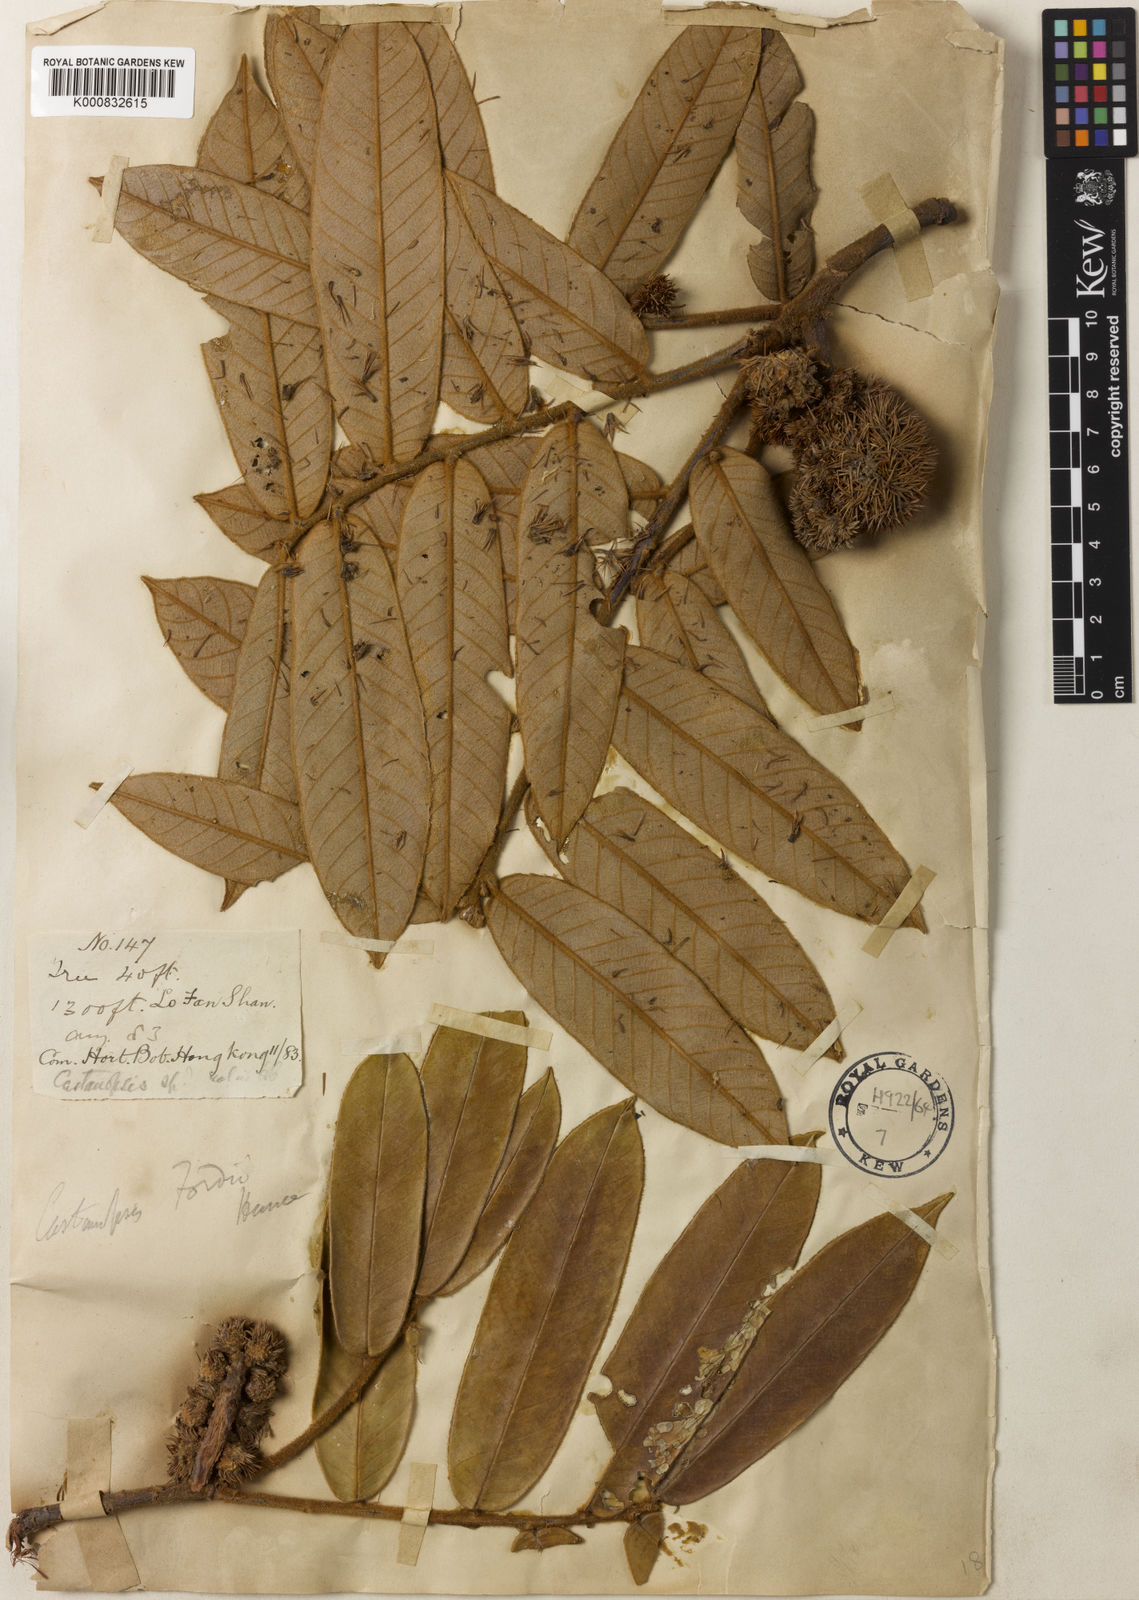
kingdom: Plantae
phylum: Tracheophyta
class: Magnoliopsida
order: Fagales
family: Fagaceae
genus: Castanopsis
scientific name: Castanopsis fordii
